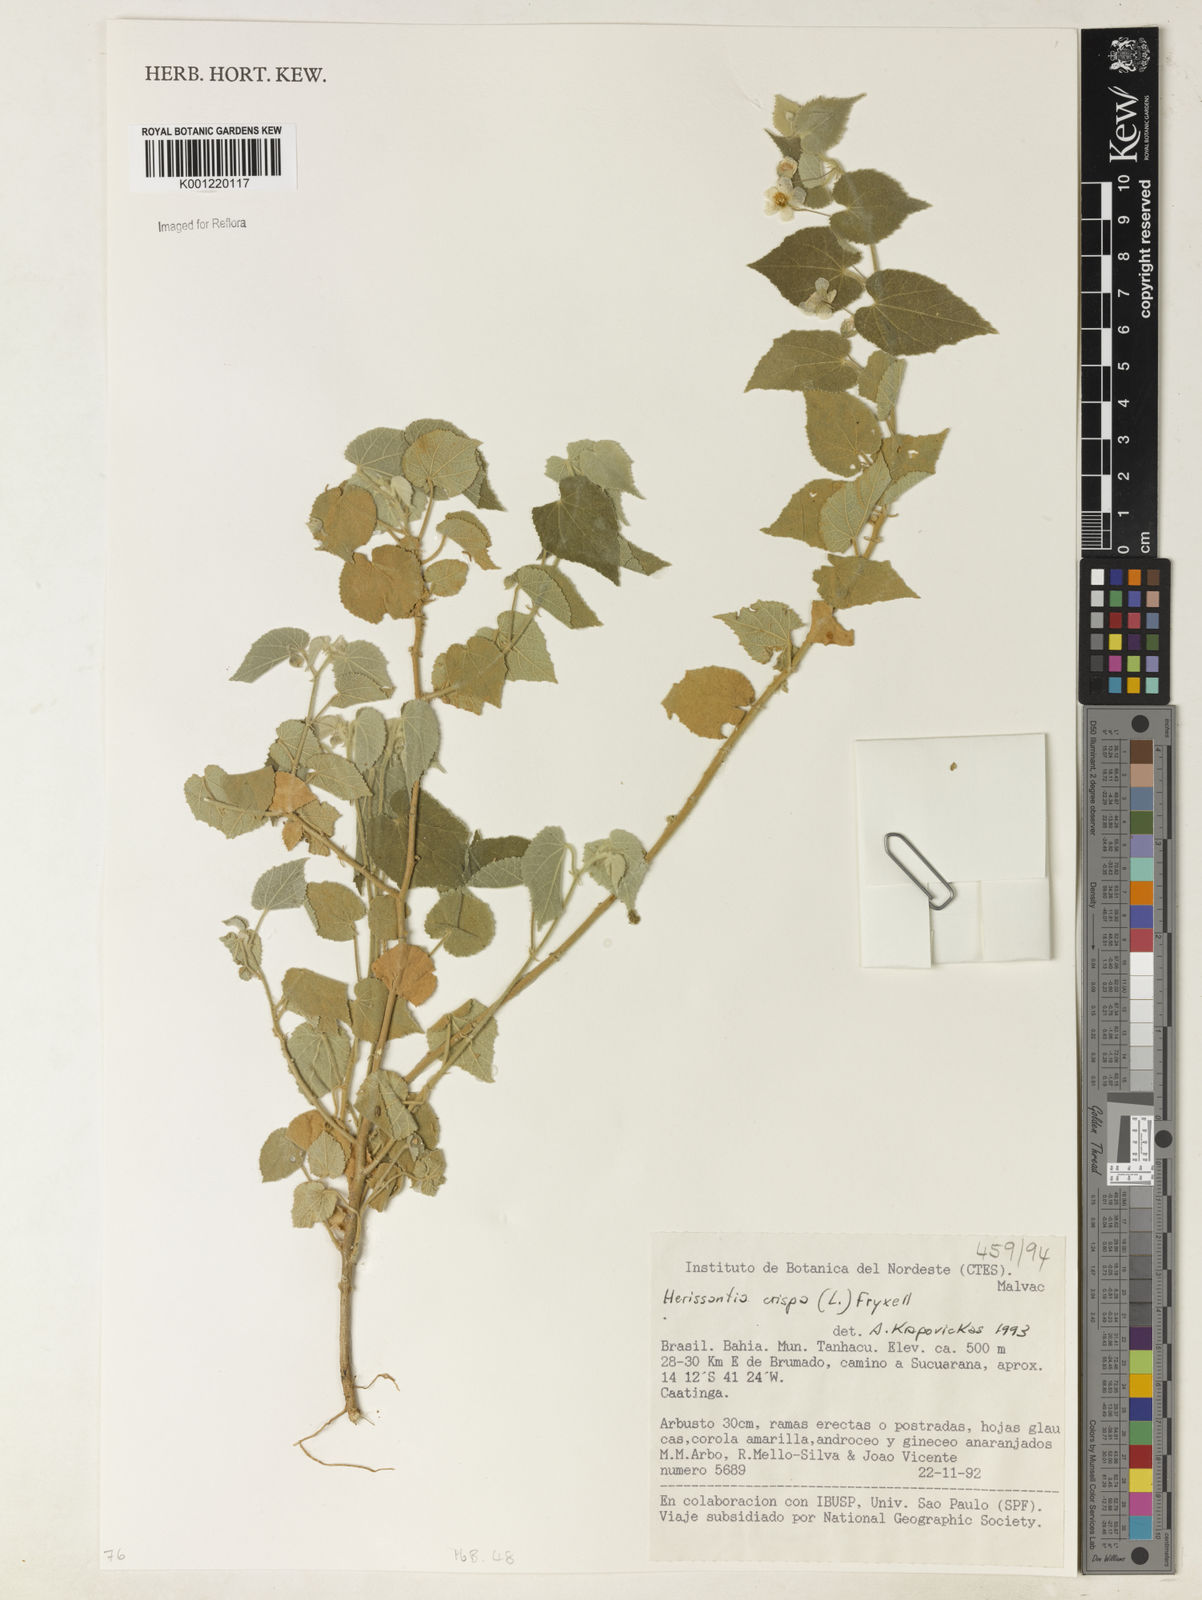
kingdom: Plantae
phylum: Tracheophyta
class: Magnoliopsida
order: Malvales
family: Malvaceae
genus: Herissantia
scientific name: Herissantia crispa
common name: Bladdermallow
